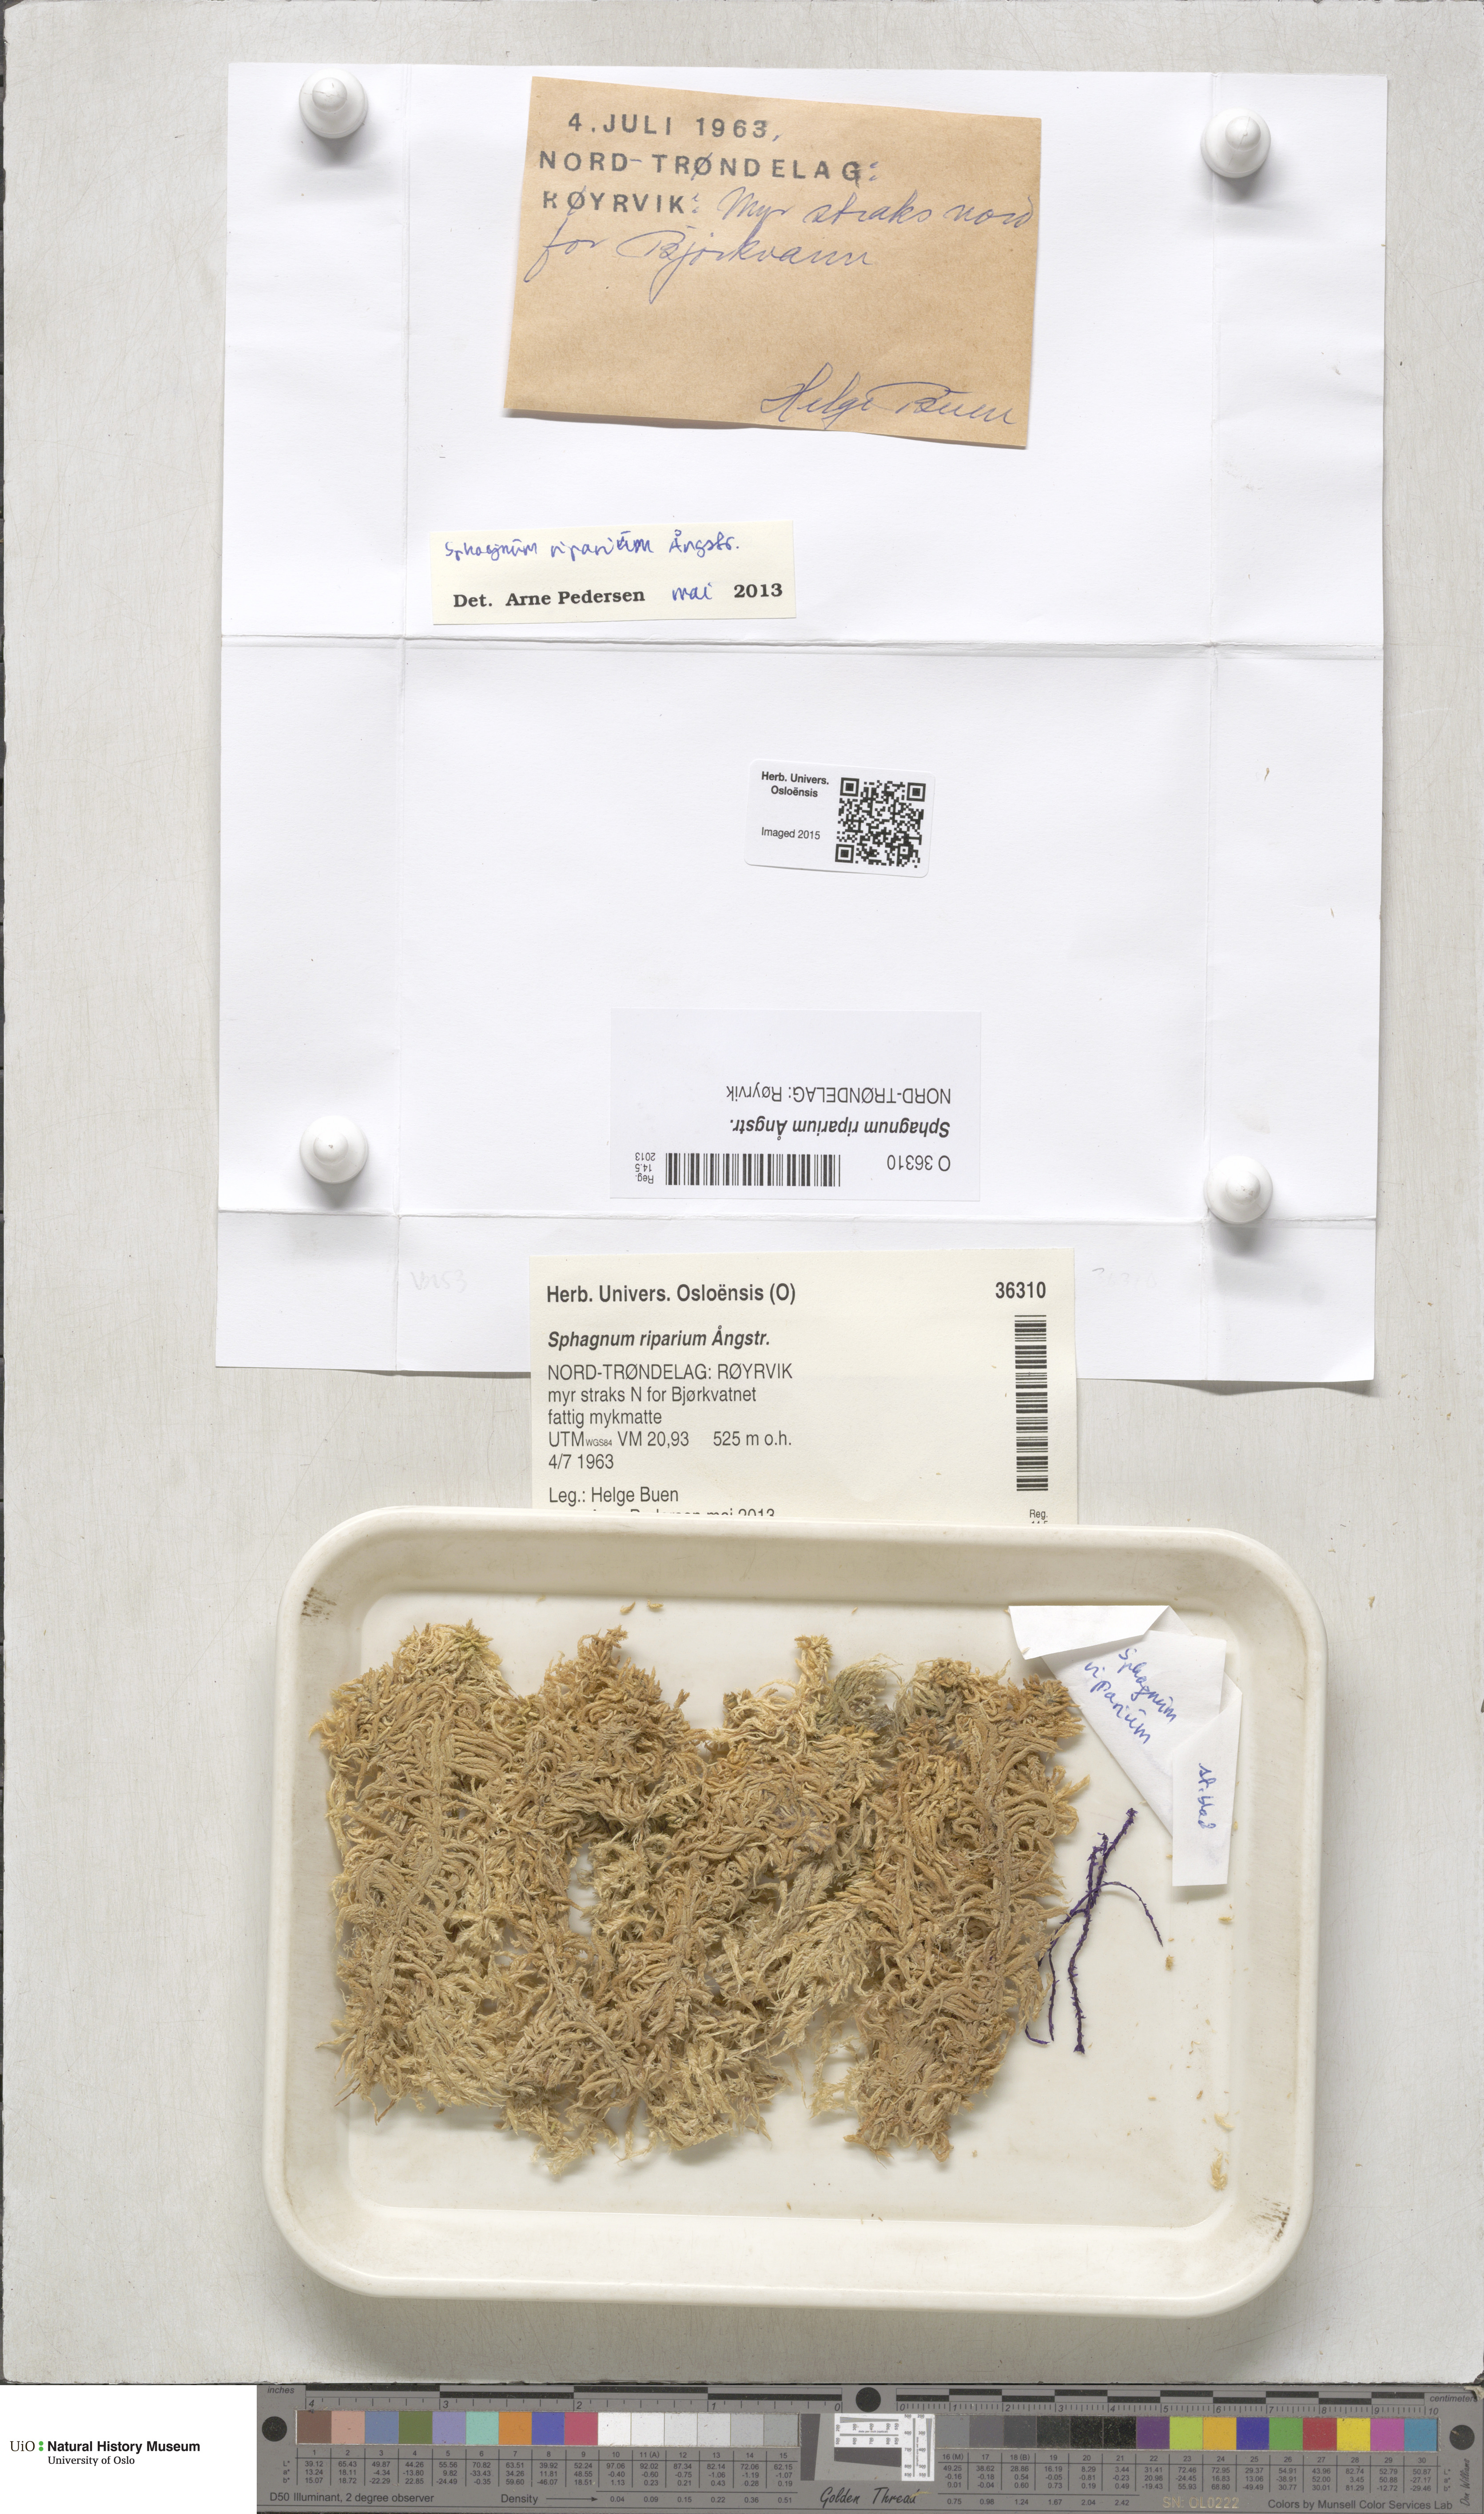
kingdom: Plantae
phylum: Bryophyta
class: Sphagnopsida
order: Sphagnales
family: Sphagnaceae
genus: Sphagnum
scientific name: Sphagnum riparium
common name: Streamside peat moss
